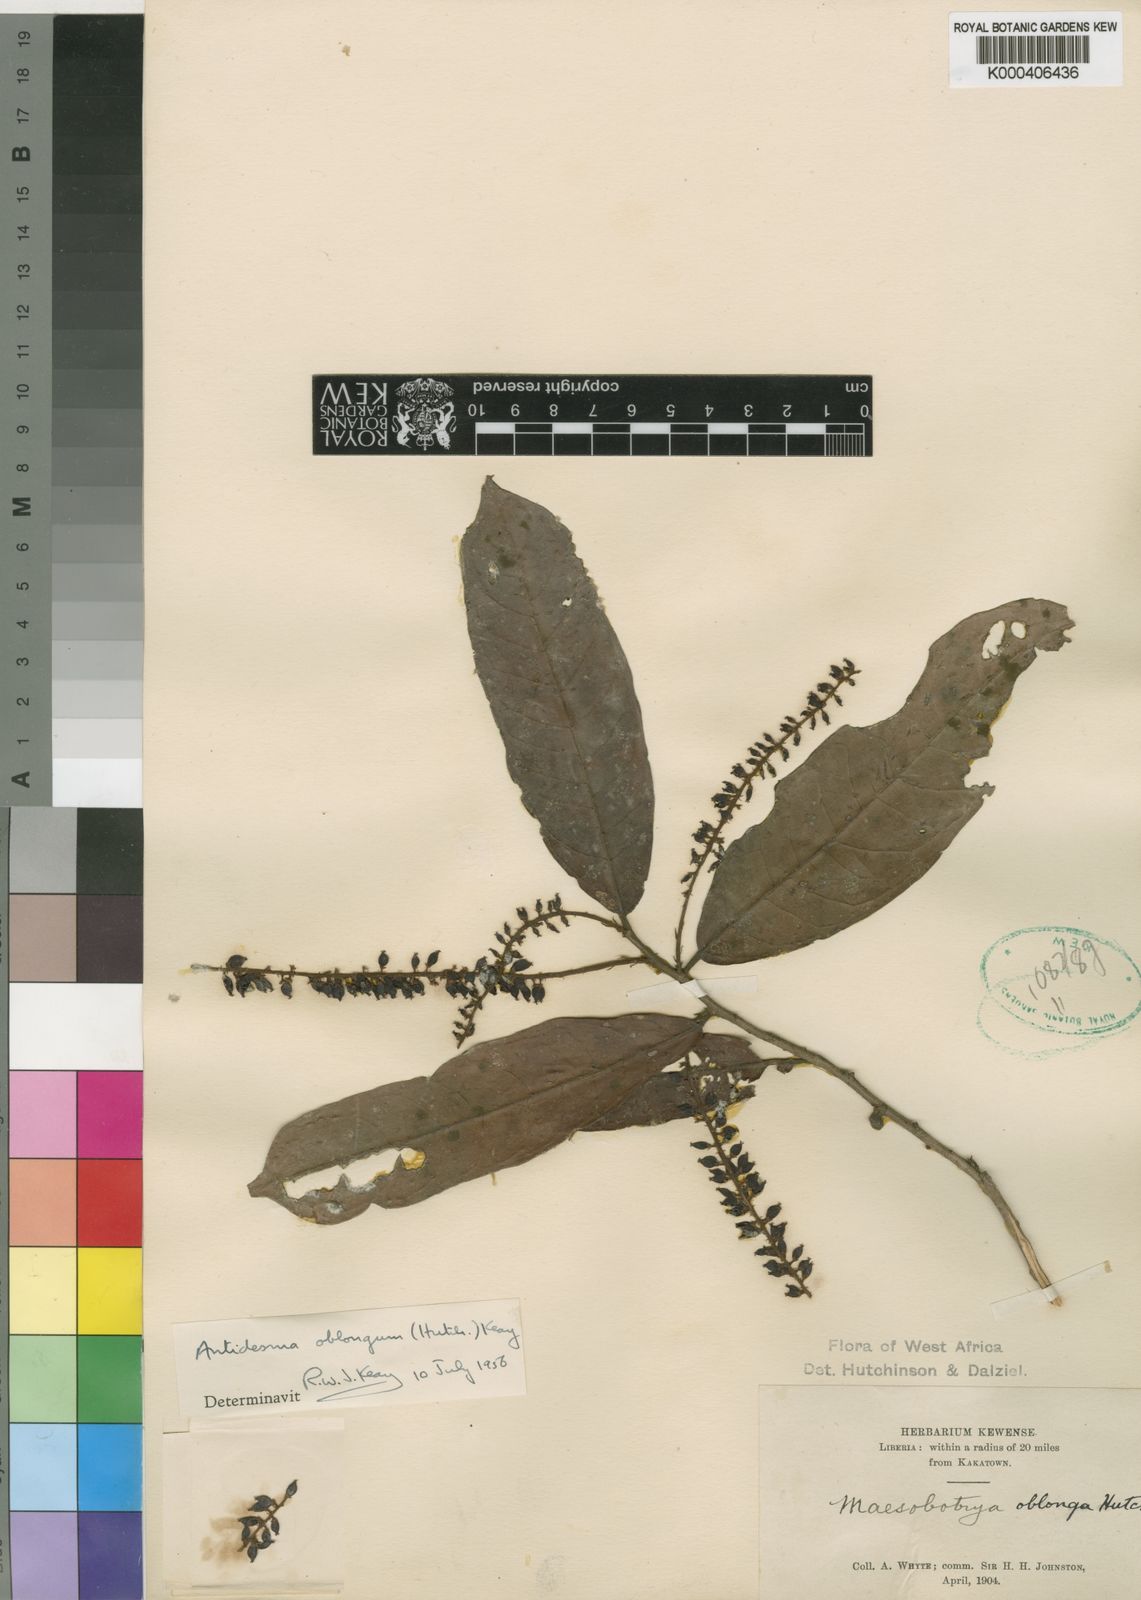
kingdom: Plantae
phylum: Tracheophyta
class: Magnoliopsida
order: Malpighiales
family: Phyllanthaceae
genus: Antidesma
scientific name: Antidesma oblongum
